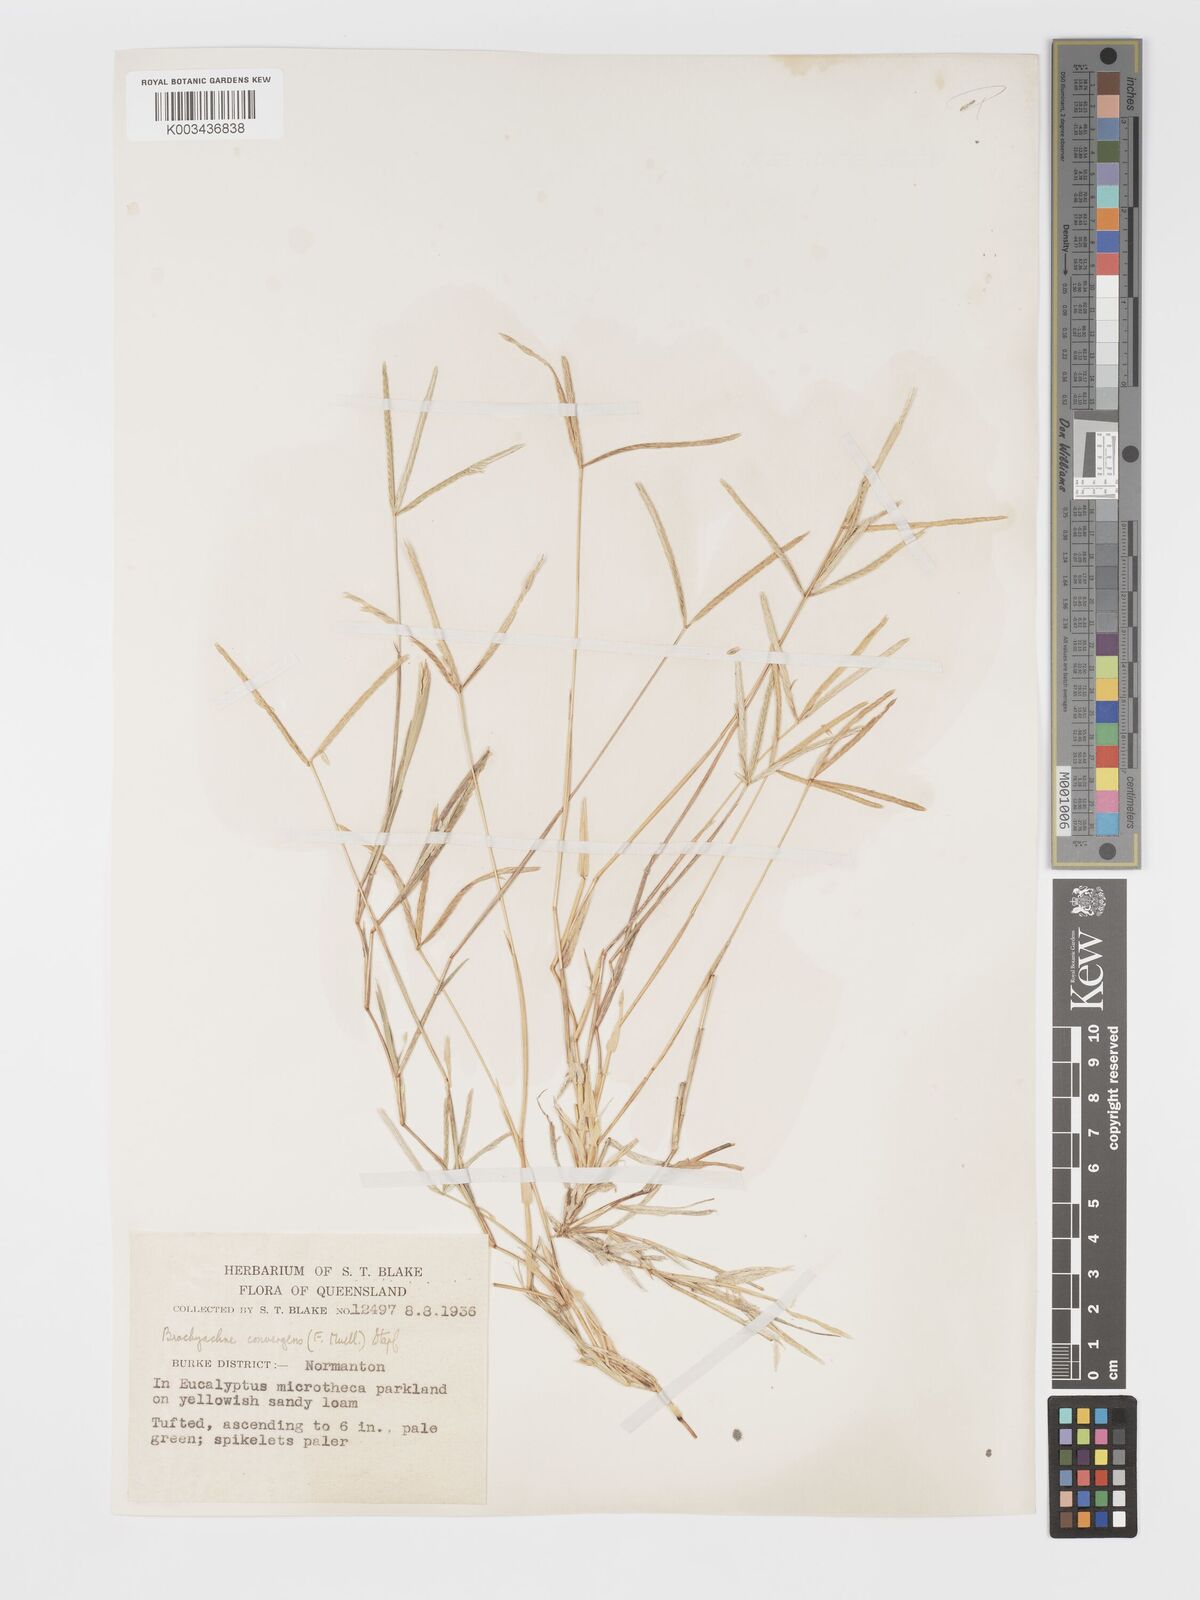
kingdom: Plantae
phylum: Tracheophyta
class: Liliopsida
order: Poales
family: Poaceae
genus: Cynodon
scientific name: Cynodon convergens
